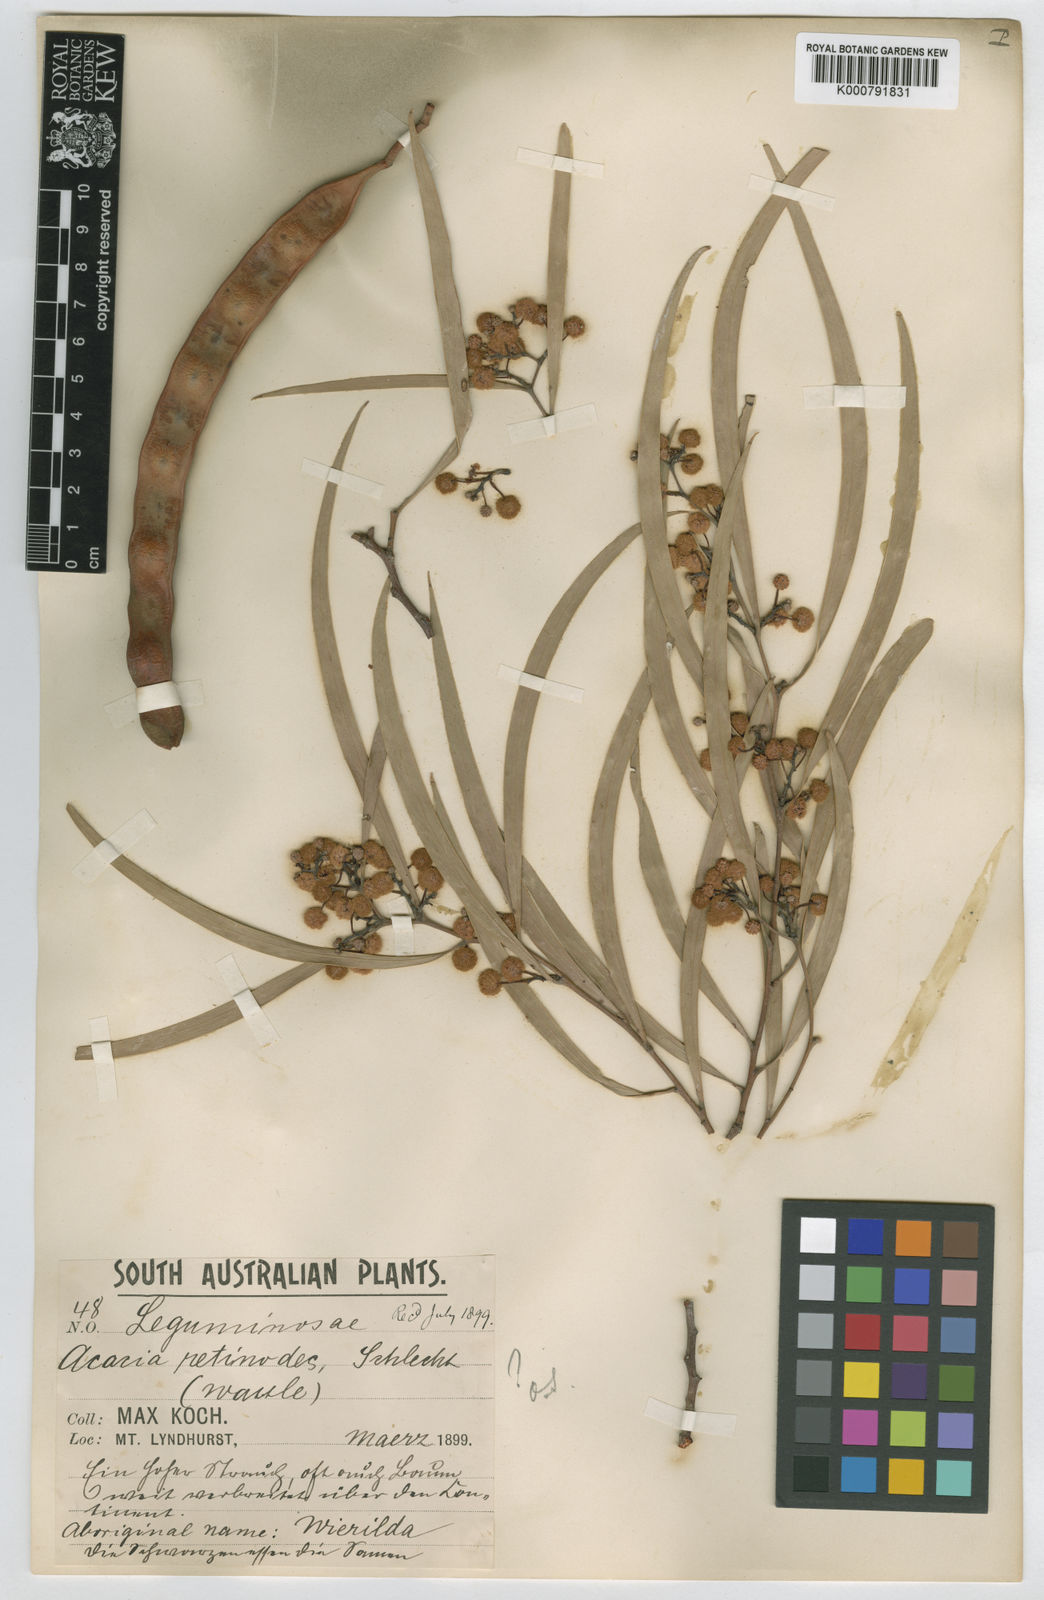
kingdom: Plantae
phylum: Tracheophyta
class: Magnoliopsida
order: Fabales
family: Fabaceae
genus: Acacia
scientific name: Acacia confluens
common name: Arkaroola wattle
